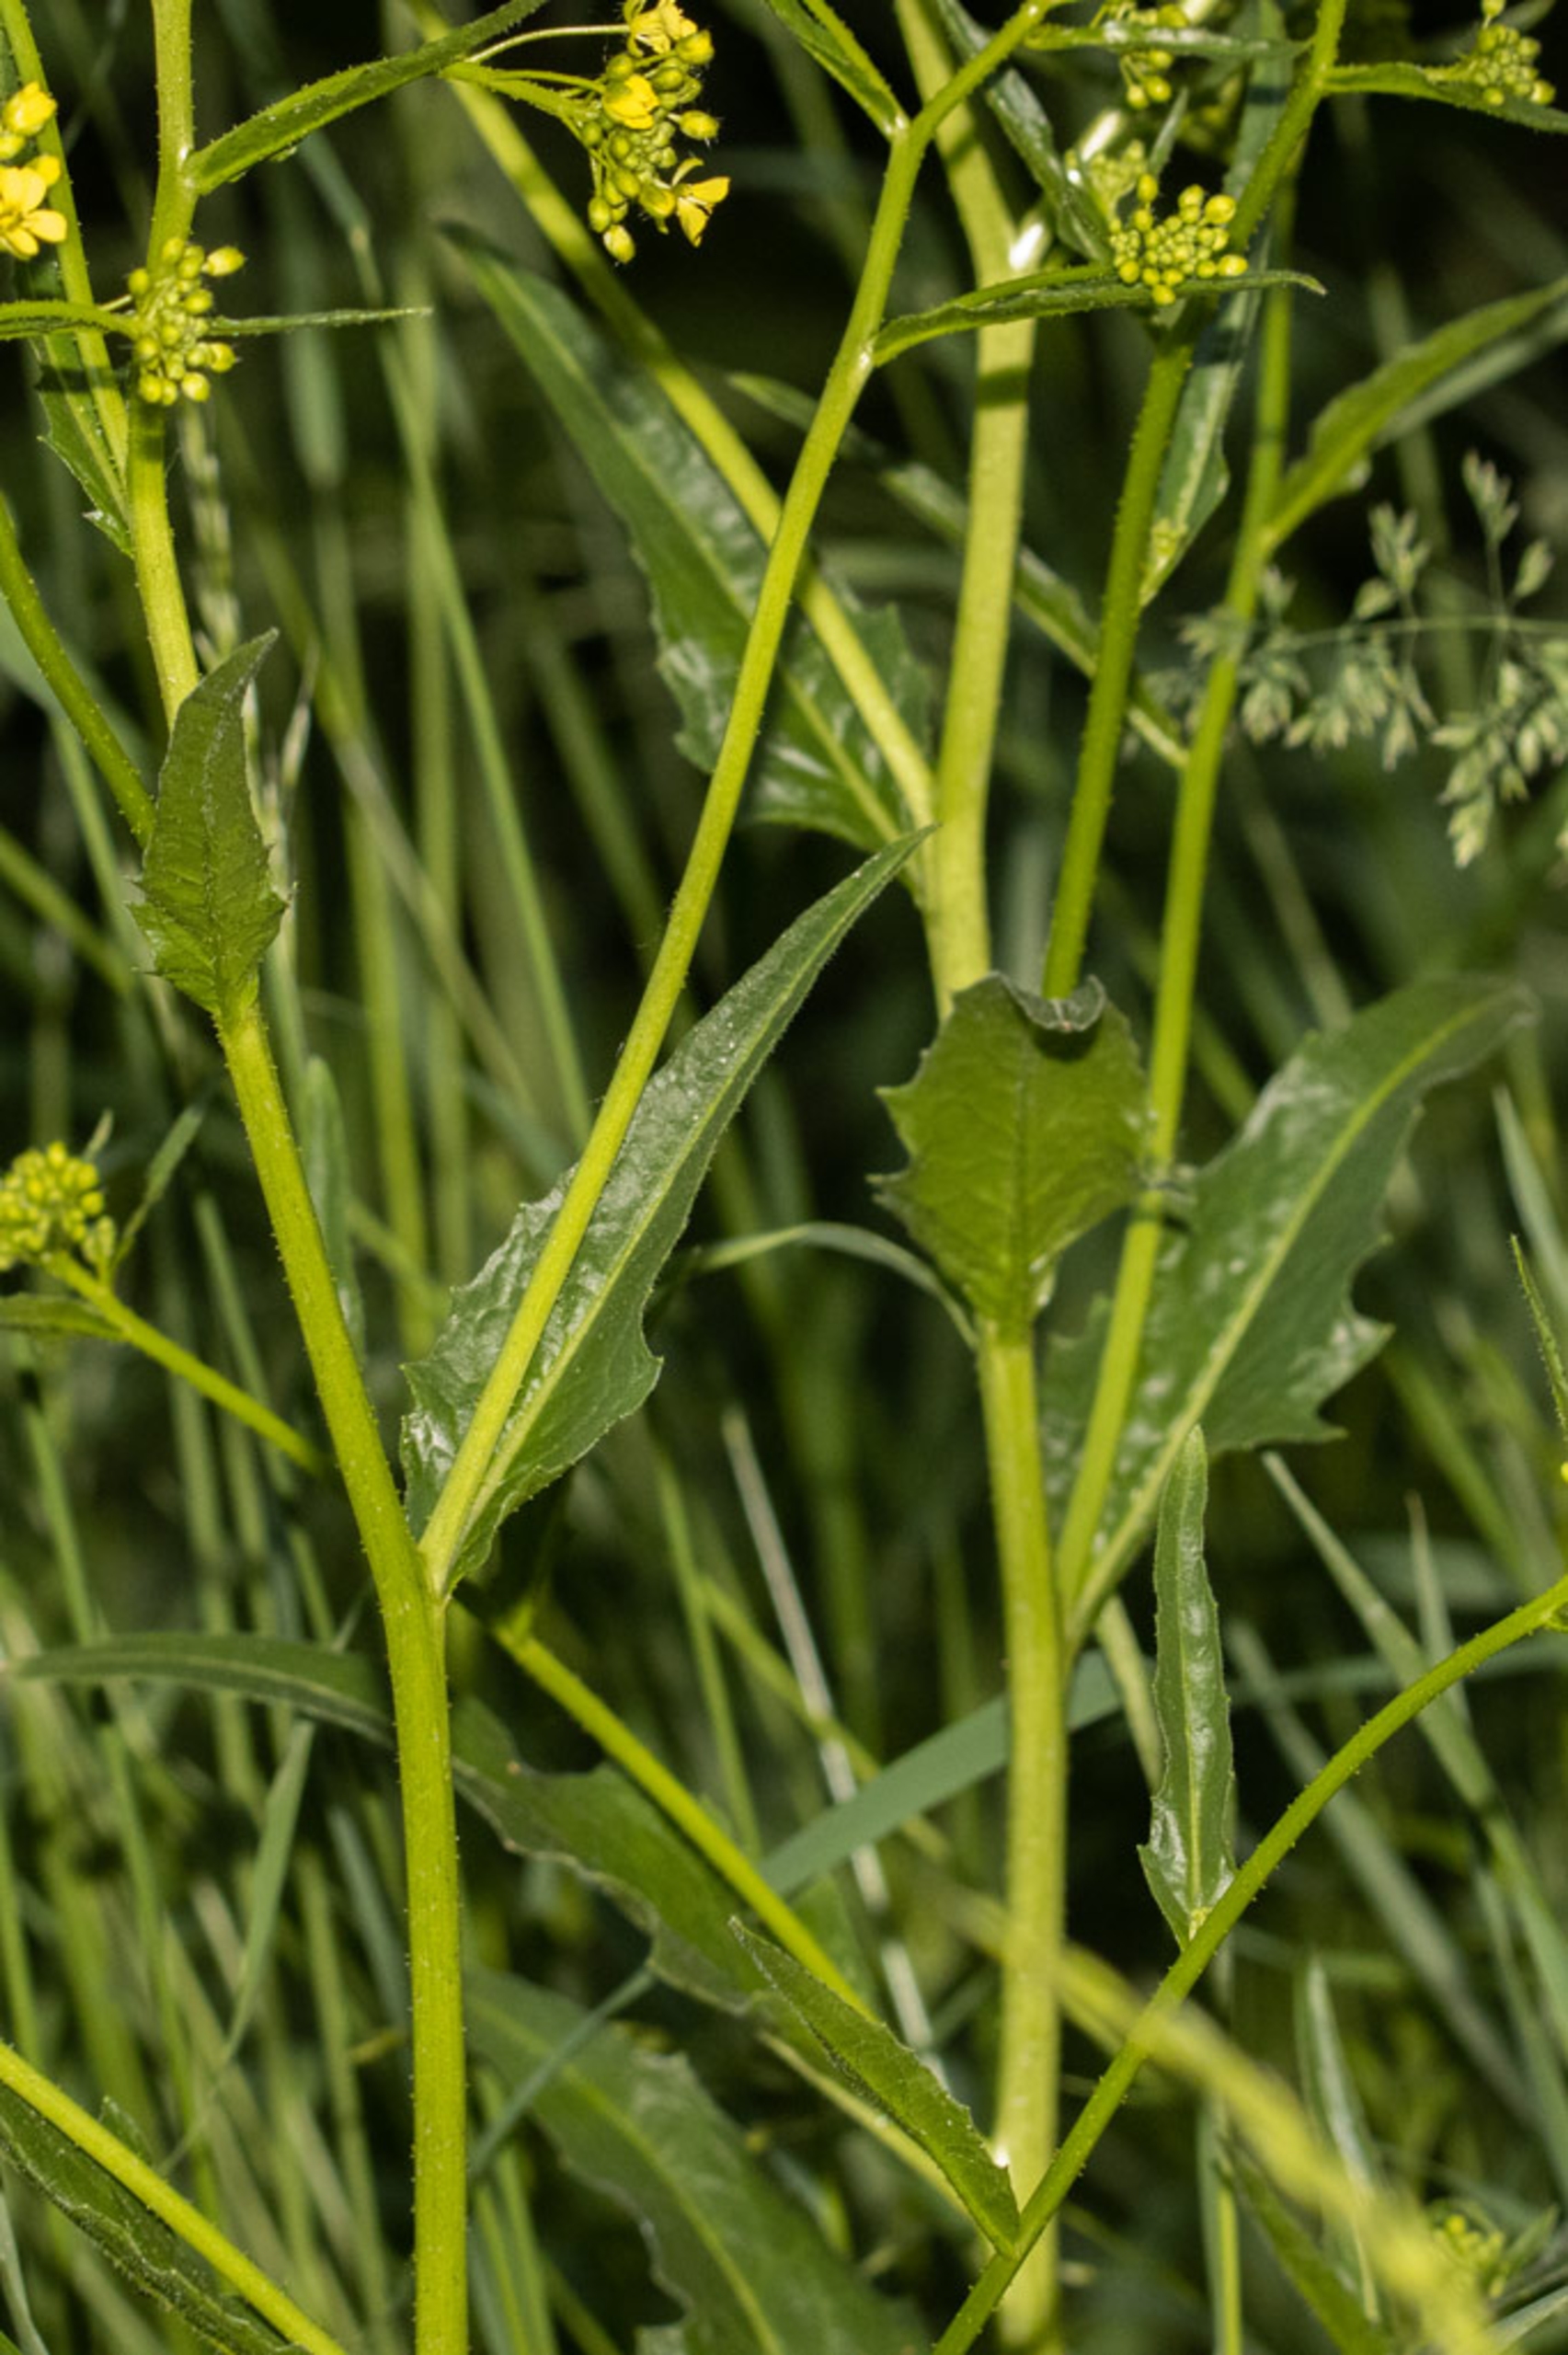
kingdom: Plantae
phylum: Tracheophyta
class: Magnoliopsida
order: Brassicales
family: Brassicaceae
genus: Bunias
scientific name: Bunias orientalis
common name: Takkeklap
